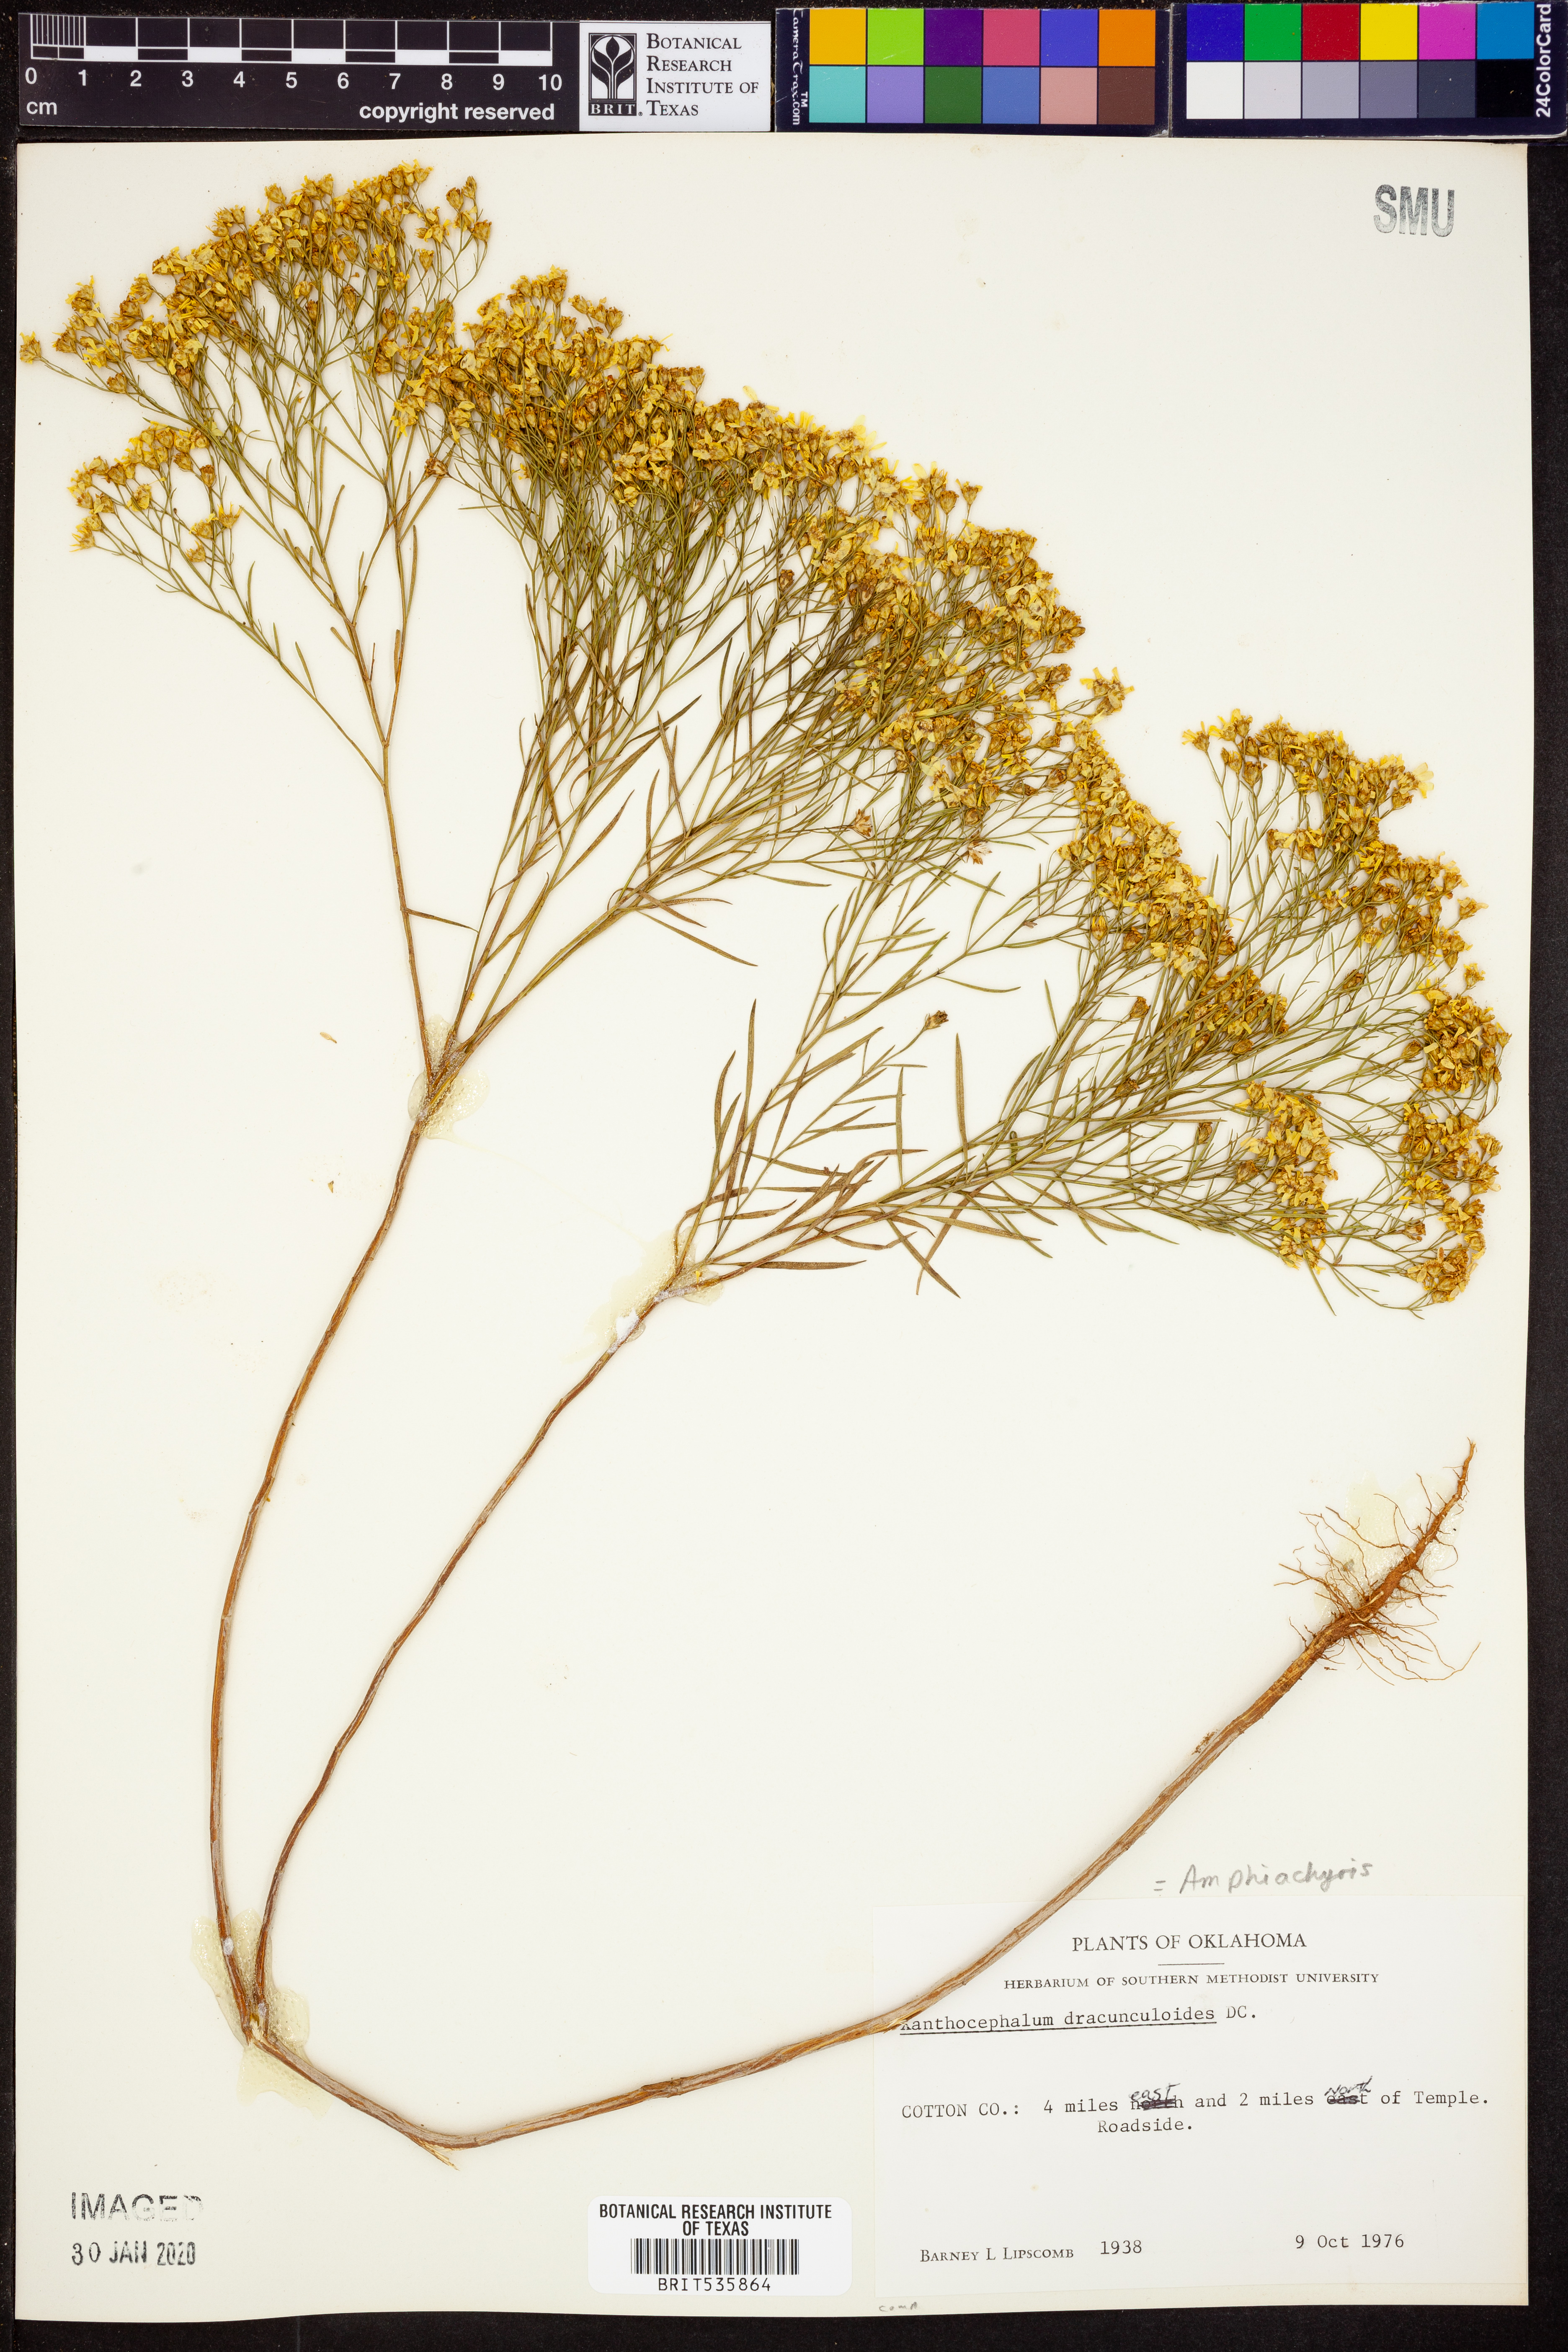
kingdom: Plantae
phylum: Tracheophyta
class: Magnoliopsida
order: Asterales
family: Asteraceae
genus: Amphiachyris
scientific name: Amphiachyris dracunculoides
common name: Broomweed
